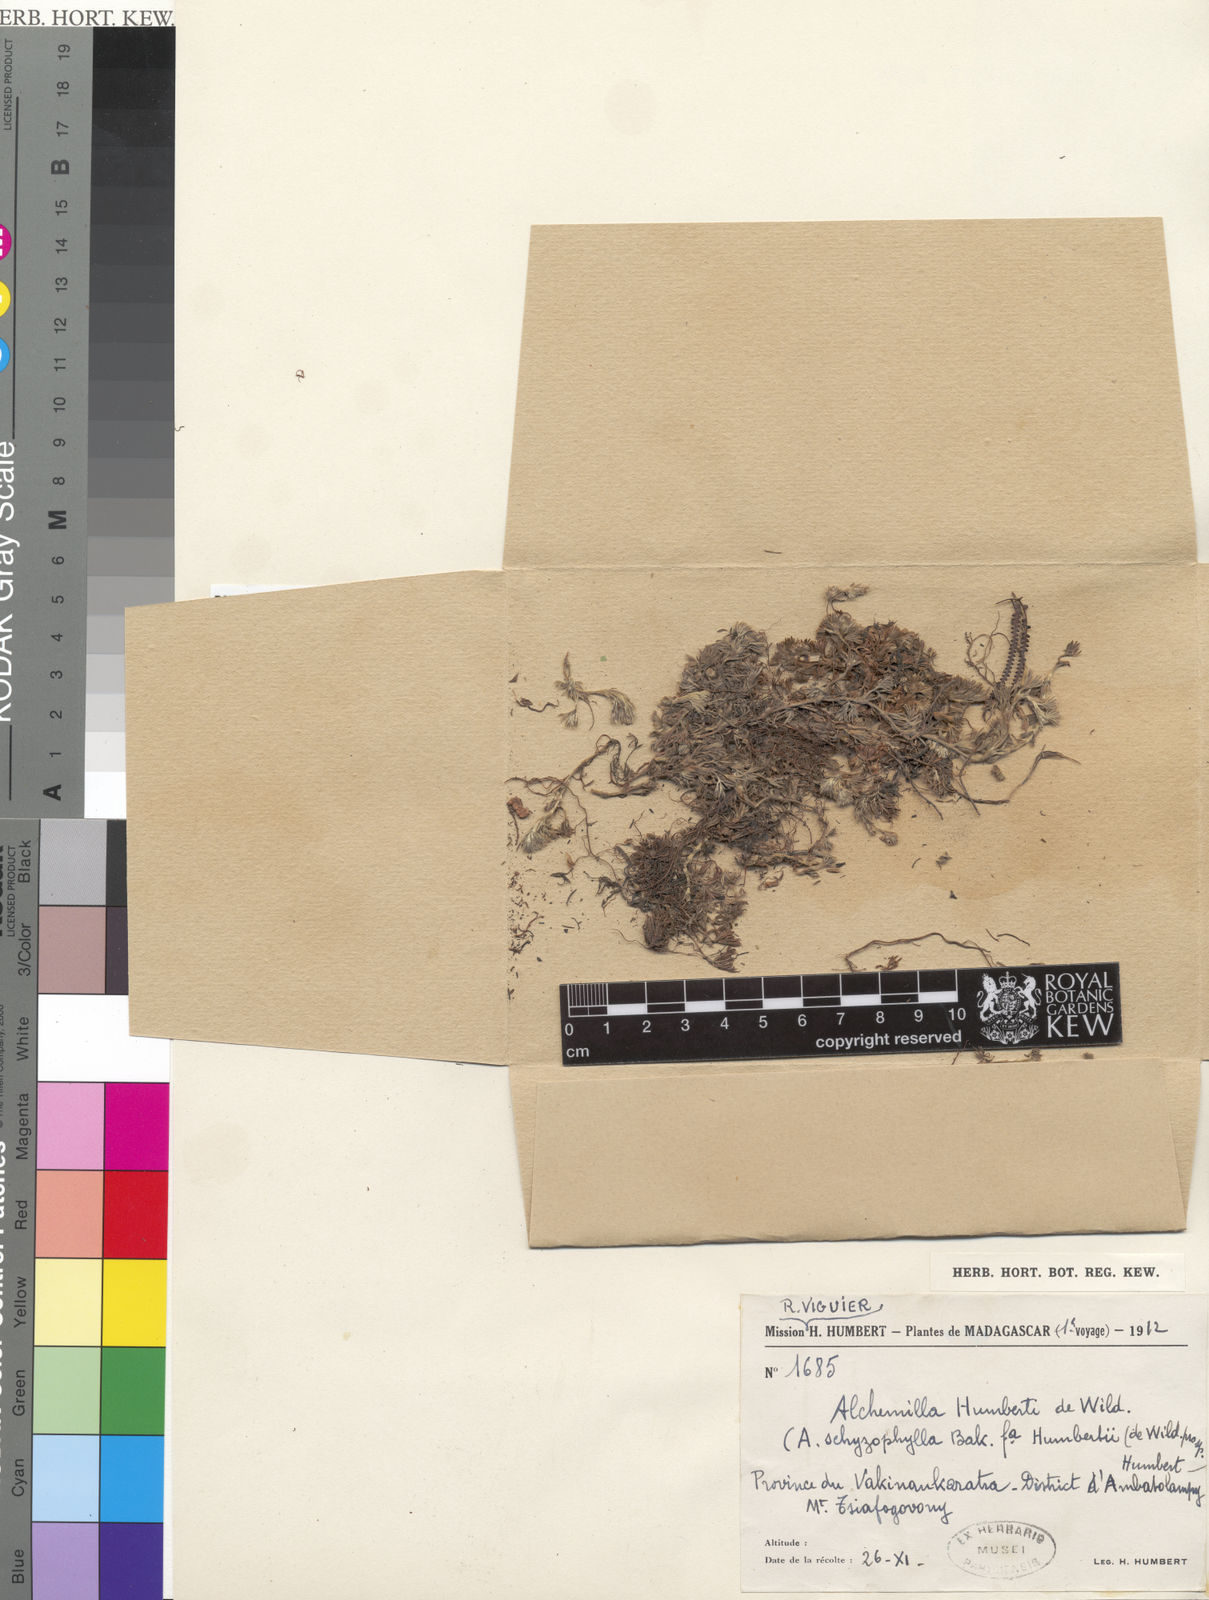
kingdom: Plantae
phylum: Tracheophyta
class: Magnoliopsida
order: Rosales
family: Rosaceae
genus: Alchemilla
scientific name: Alchemilla
